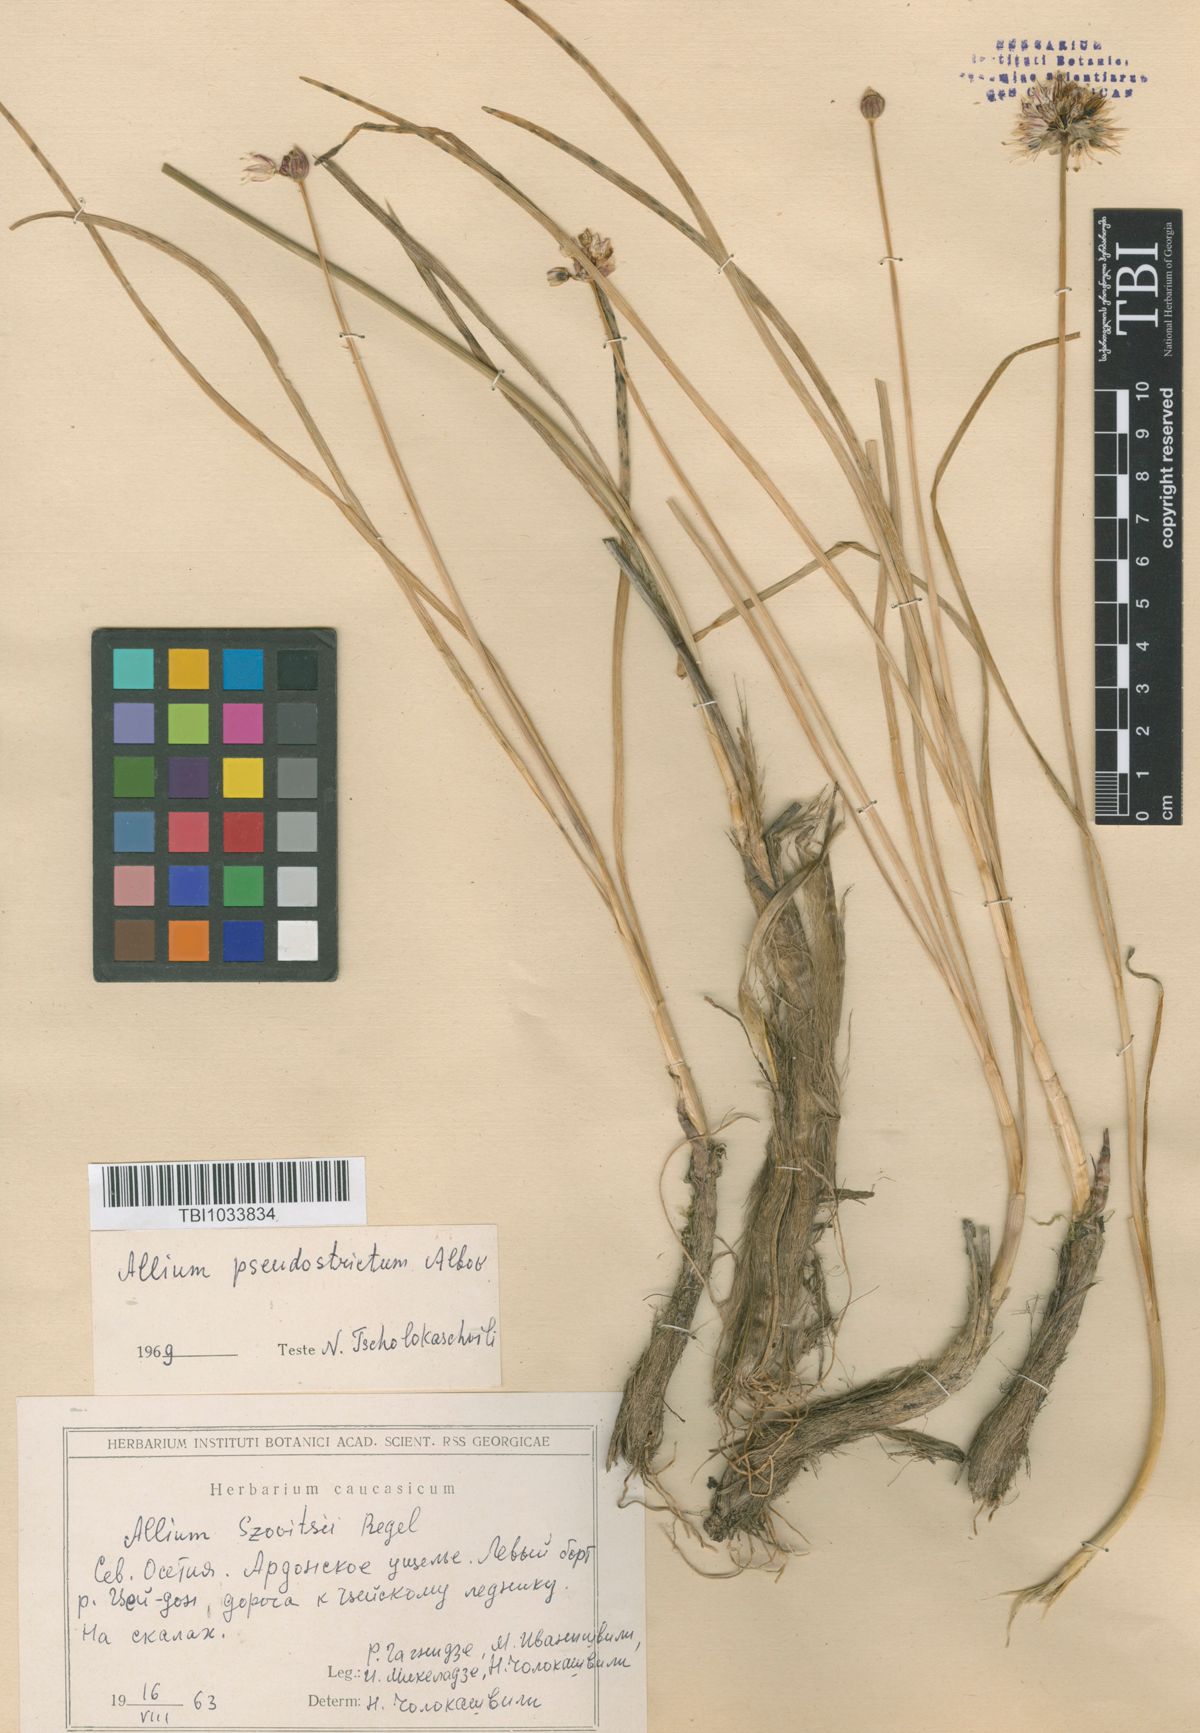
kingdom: Plantae
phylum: Tracheophyta
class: Liliopsida
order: Asparagales
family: Amaryllidaceae
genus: Allium
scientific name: Allium pseudostrictum
